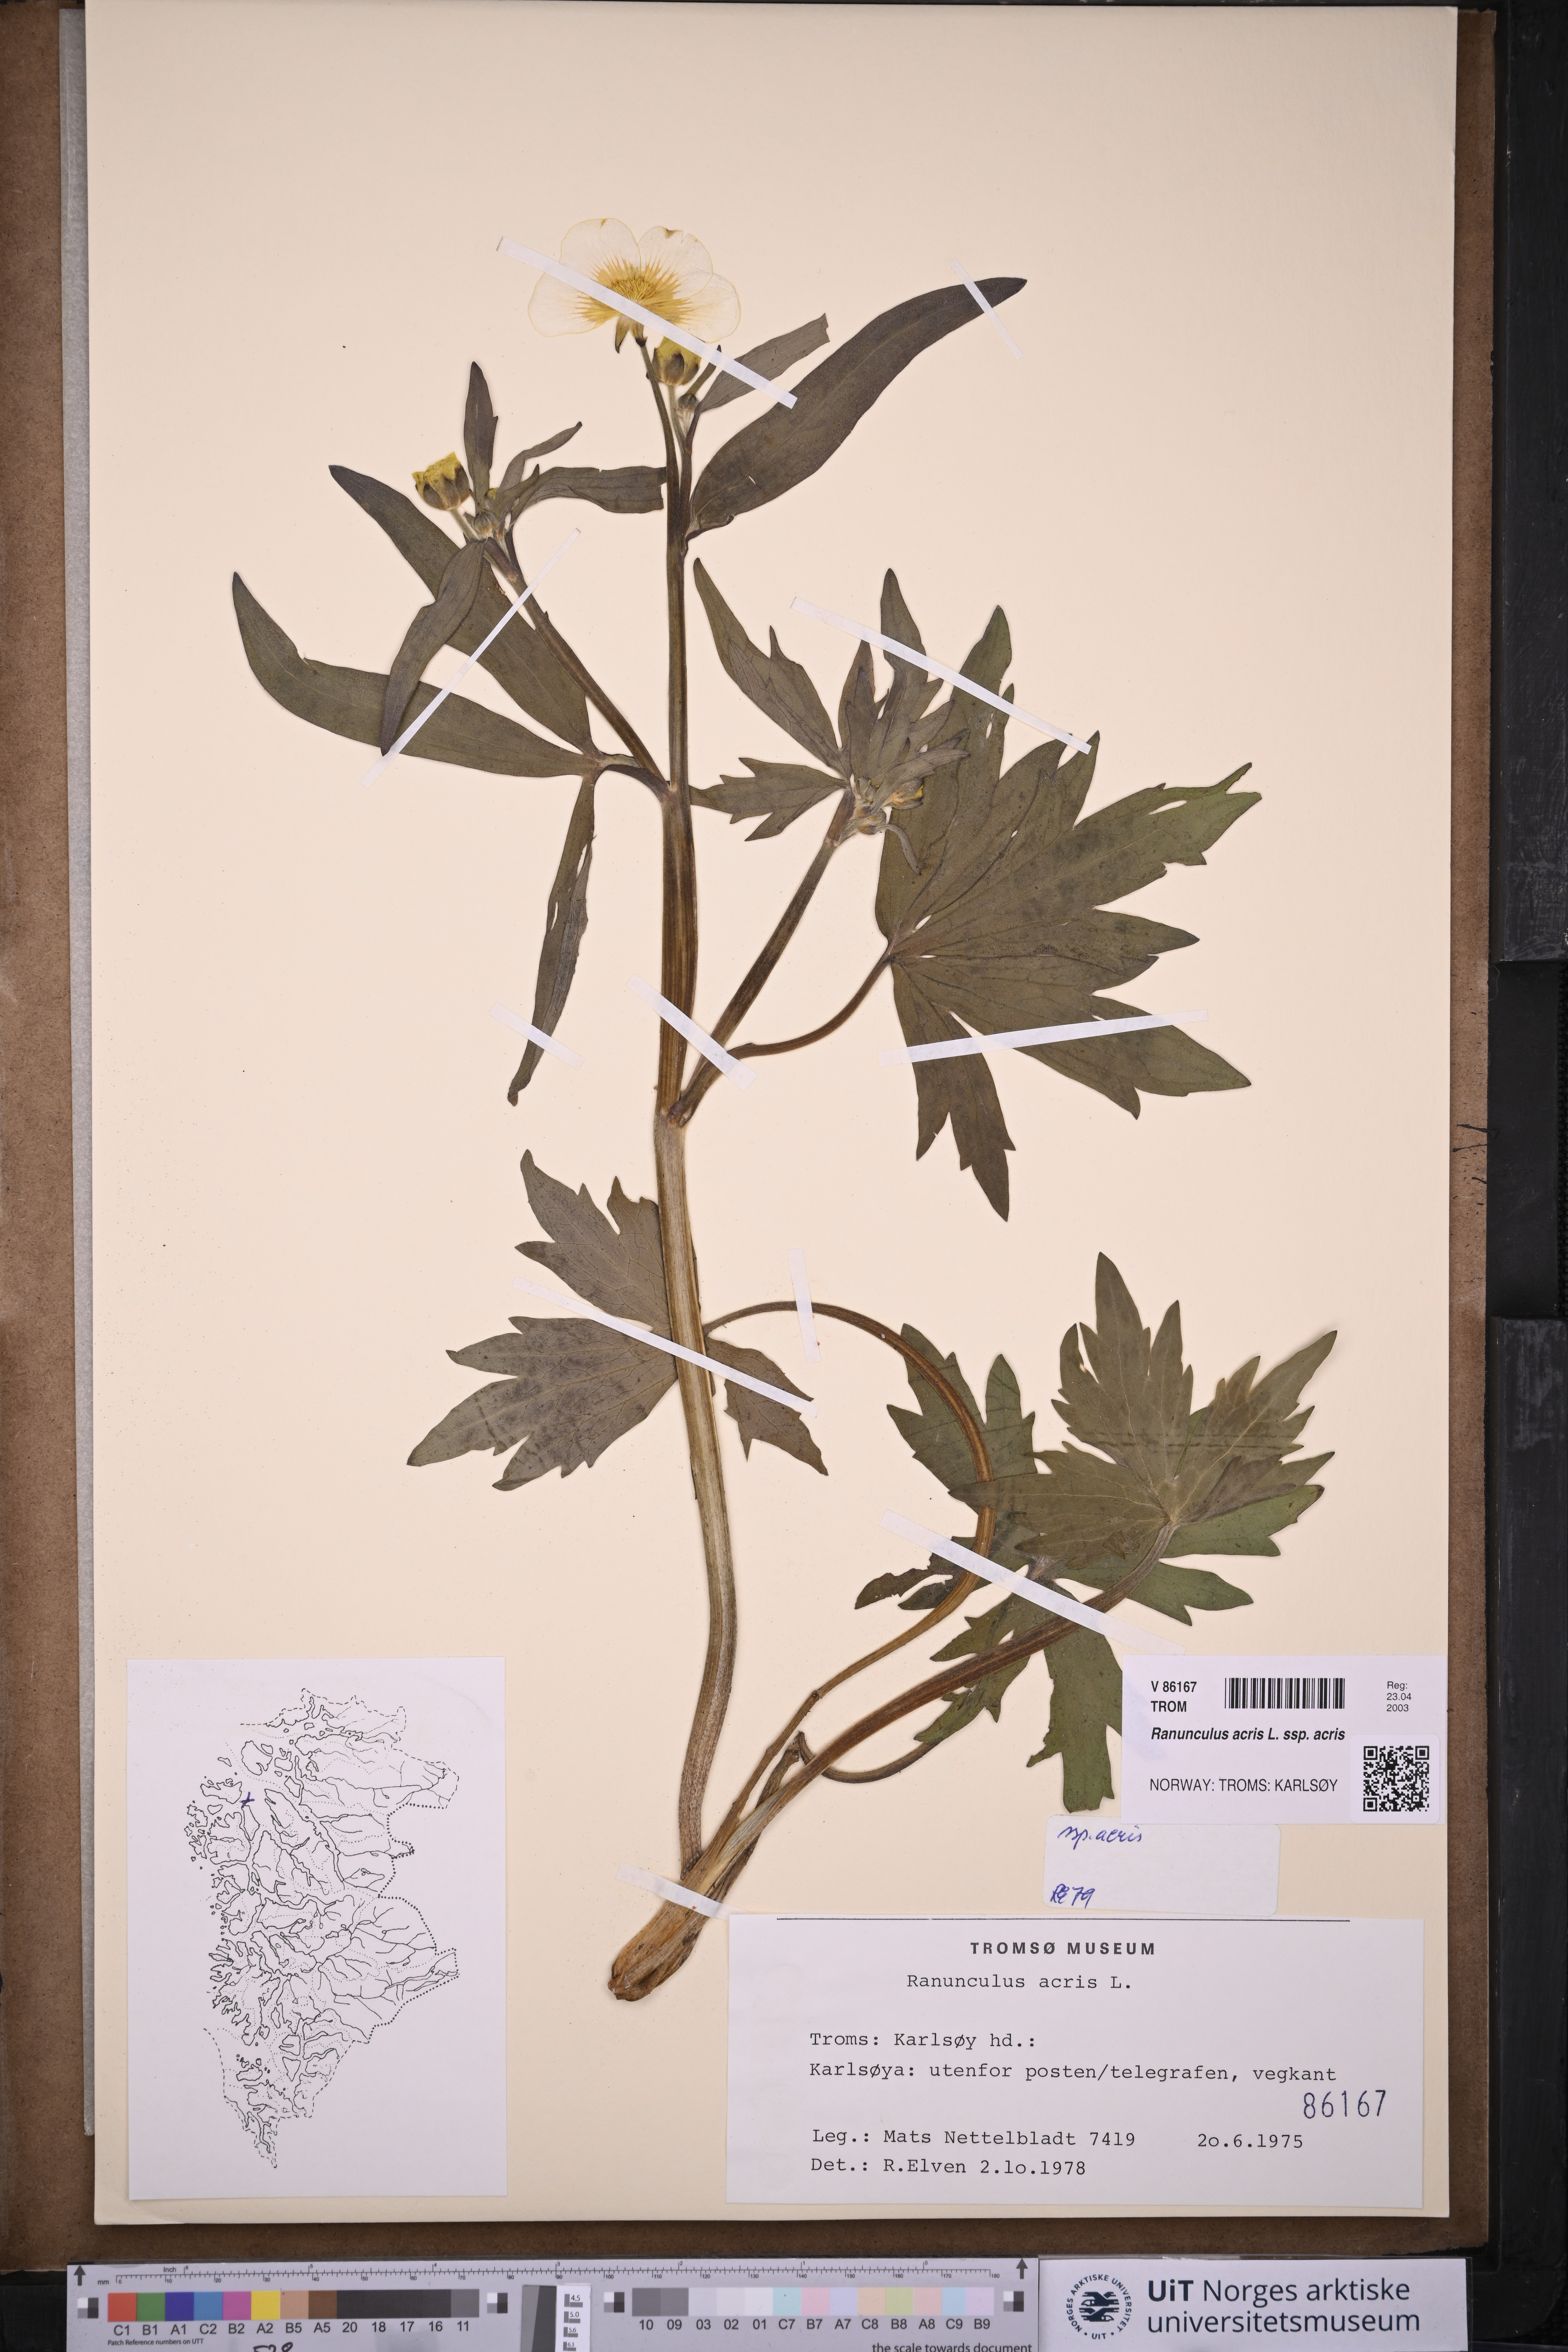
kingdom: Plantae
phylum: Tracheophyta
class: Magnoliopsida
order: Ranunculales
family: Ranunculaceae
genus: Ranunculus
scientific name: Ranunculus acris
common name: Meadow buttercup
